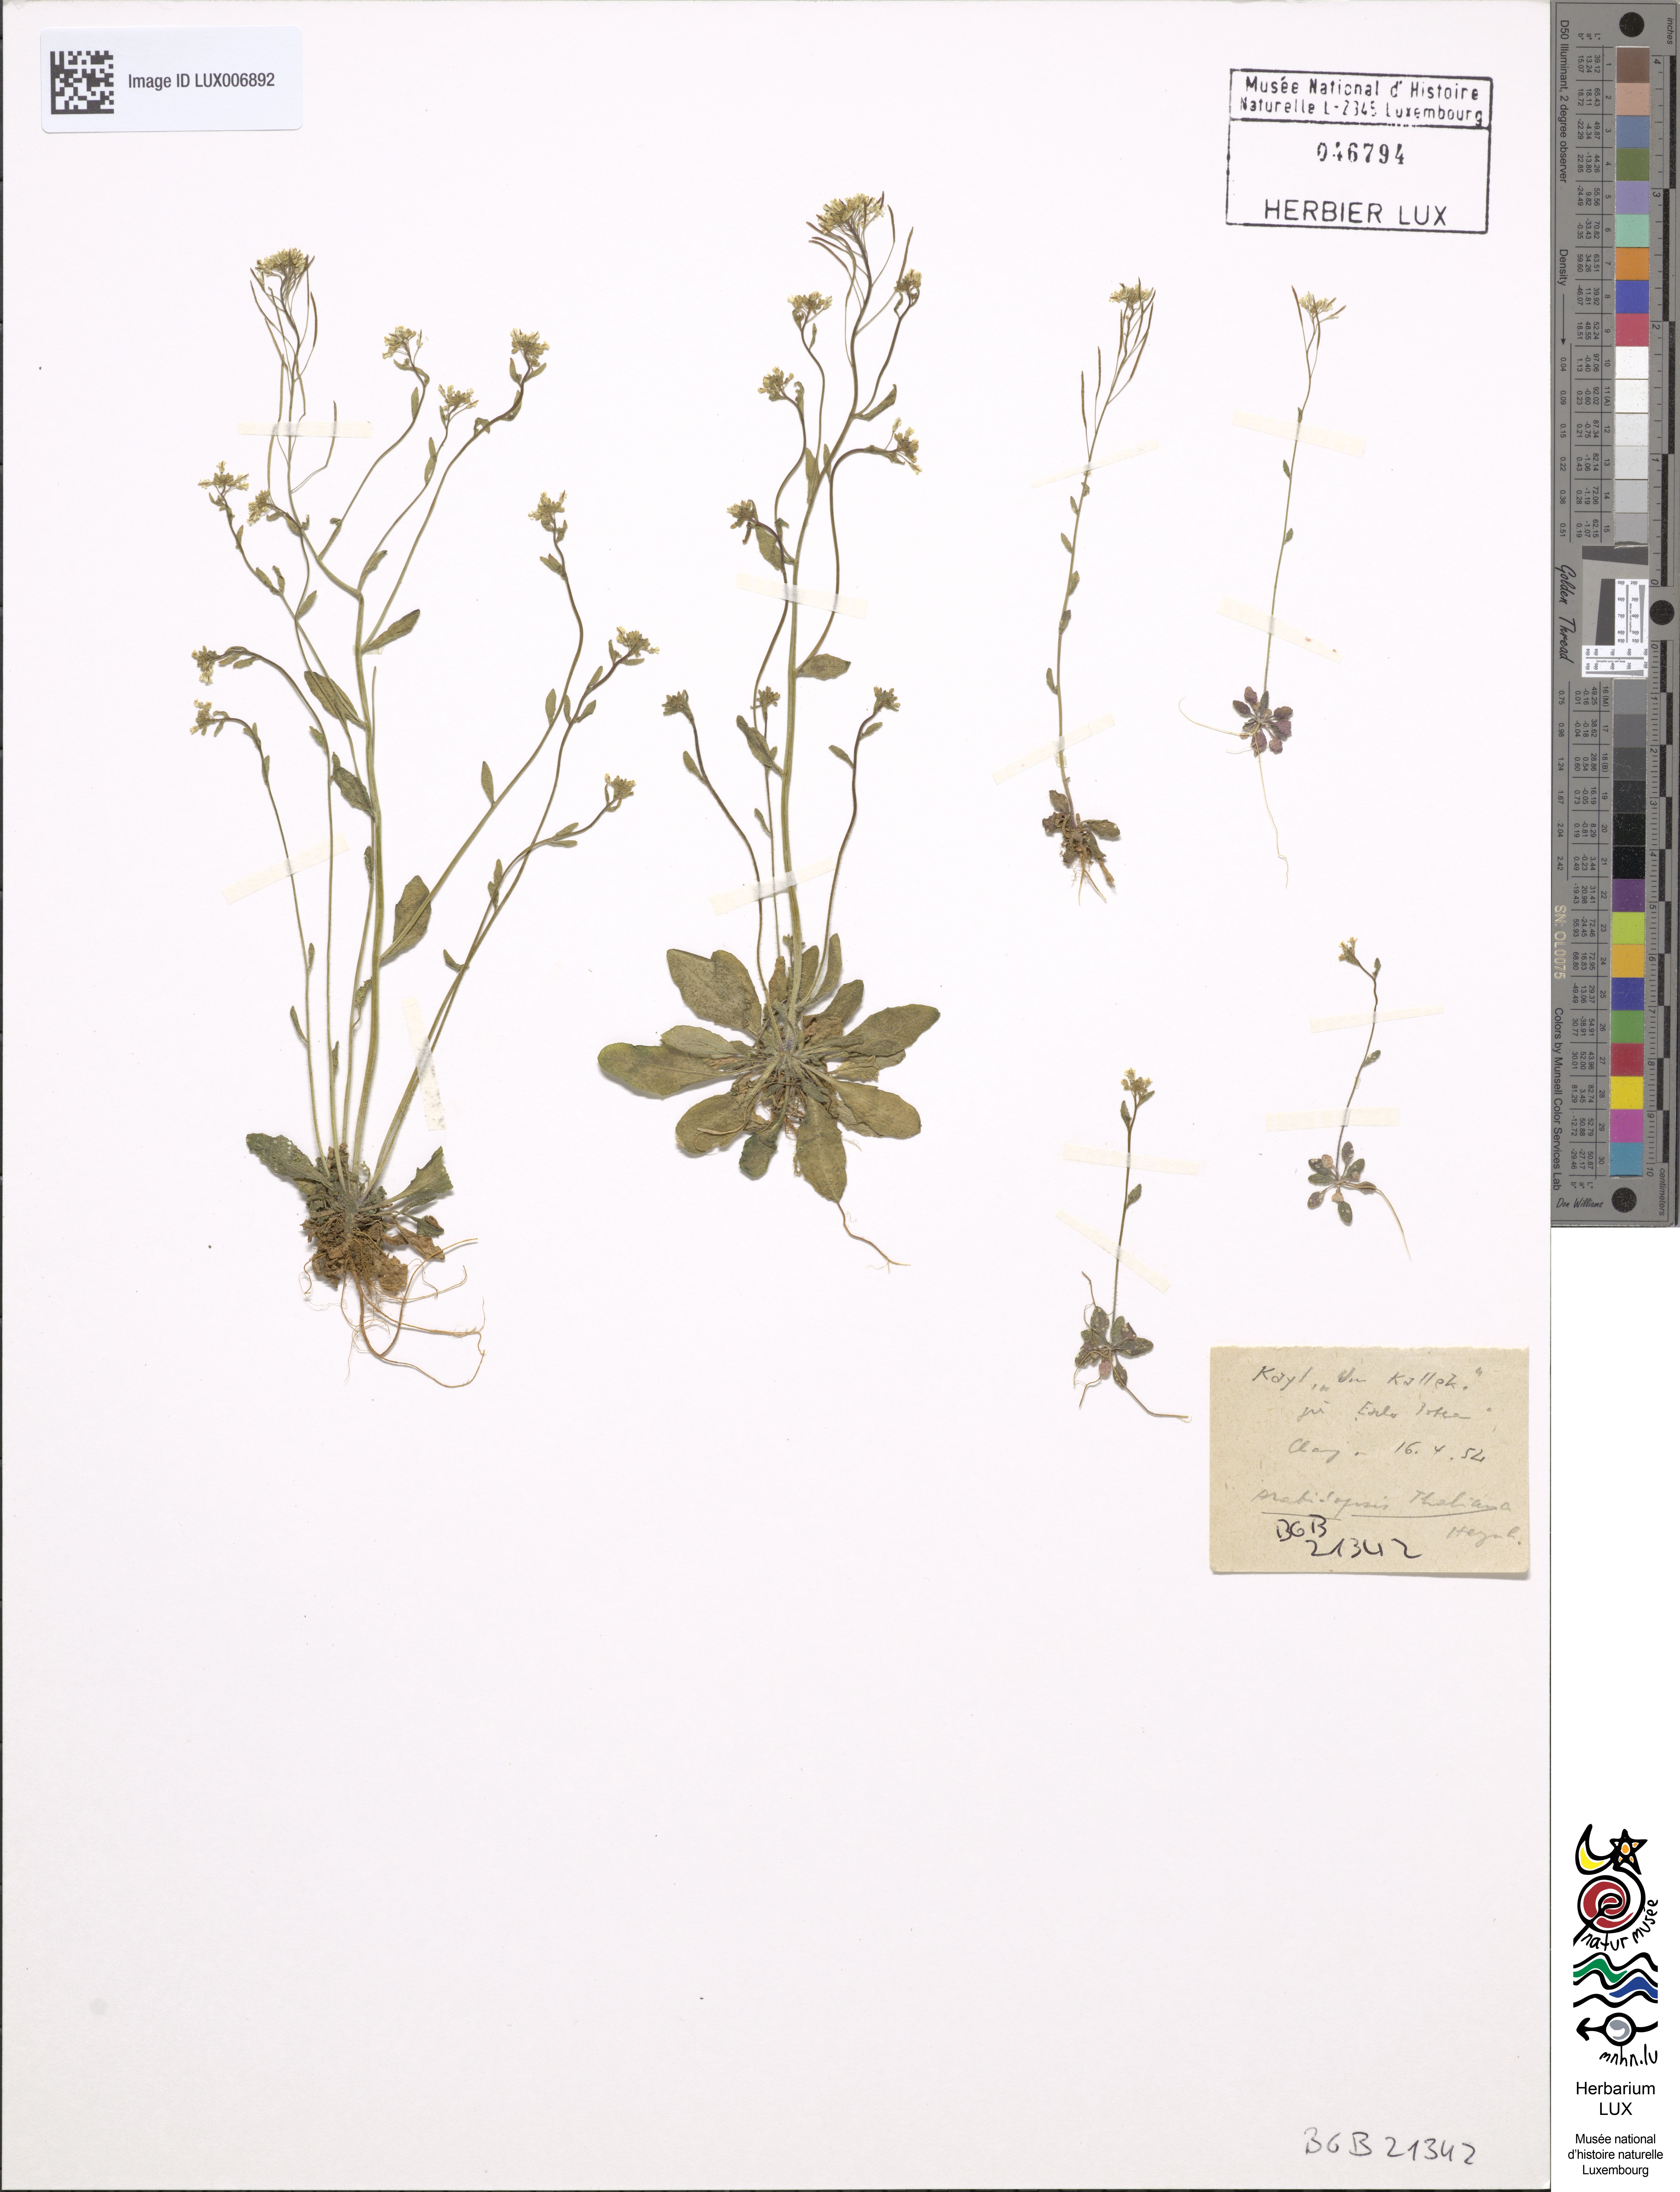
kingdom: Plantae
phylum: Tracheophyta
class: Magnoliopsida
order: Brassicales
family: Brassicaceae
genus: Arabidopsis
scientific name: Arabidopsis thaliana
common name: Thale cress
